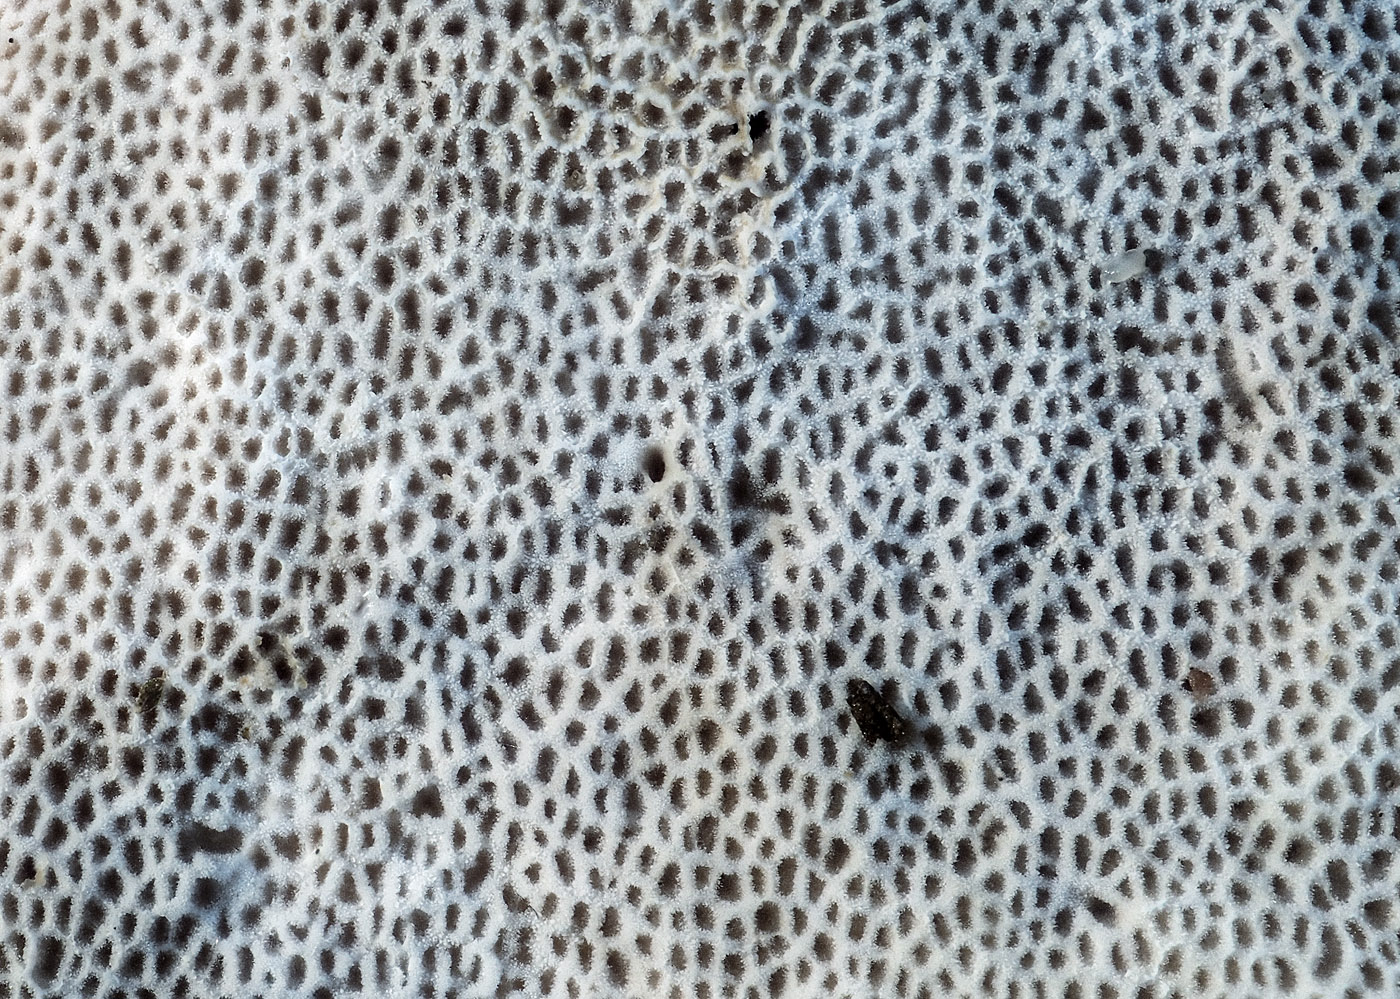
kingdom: Fungi
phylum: Basidiomycota
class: Agaricomycetes
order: Polyporales
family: Polyporaceae
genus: Picipes
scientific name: Picipes melanopus
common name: sortfodet stilkporesvamp
